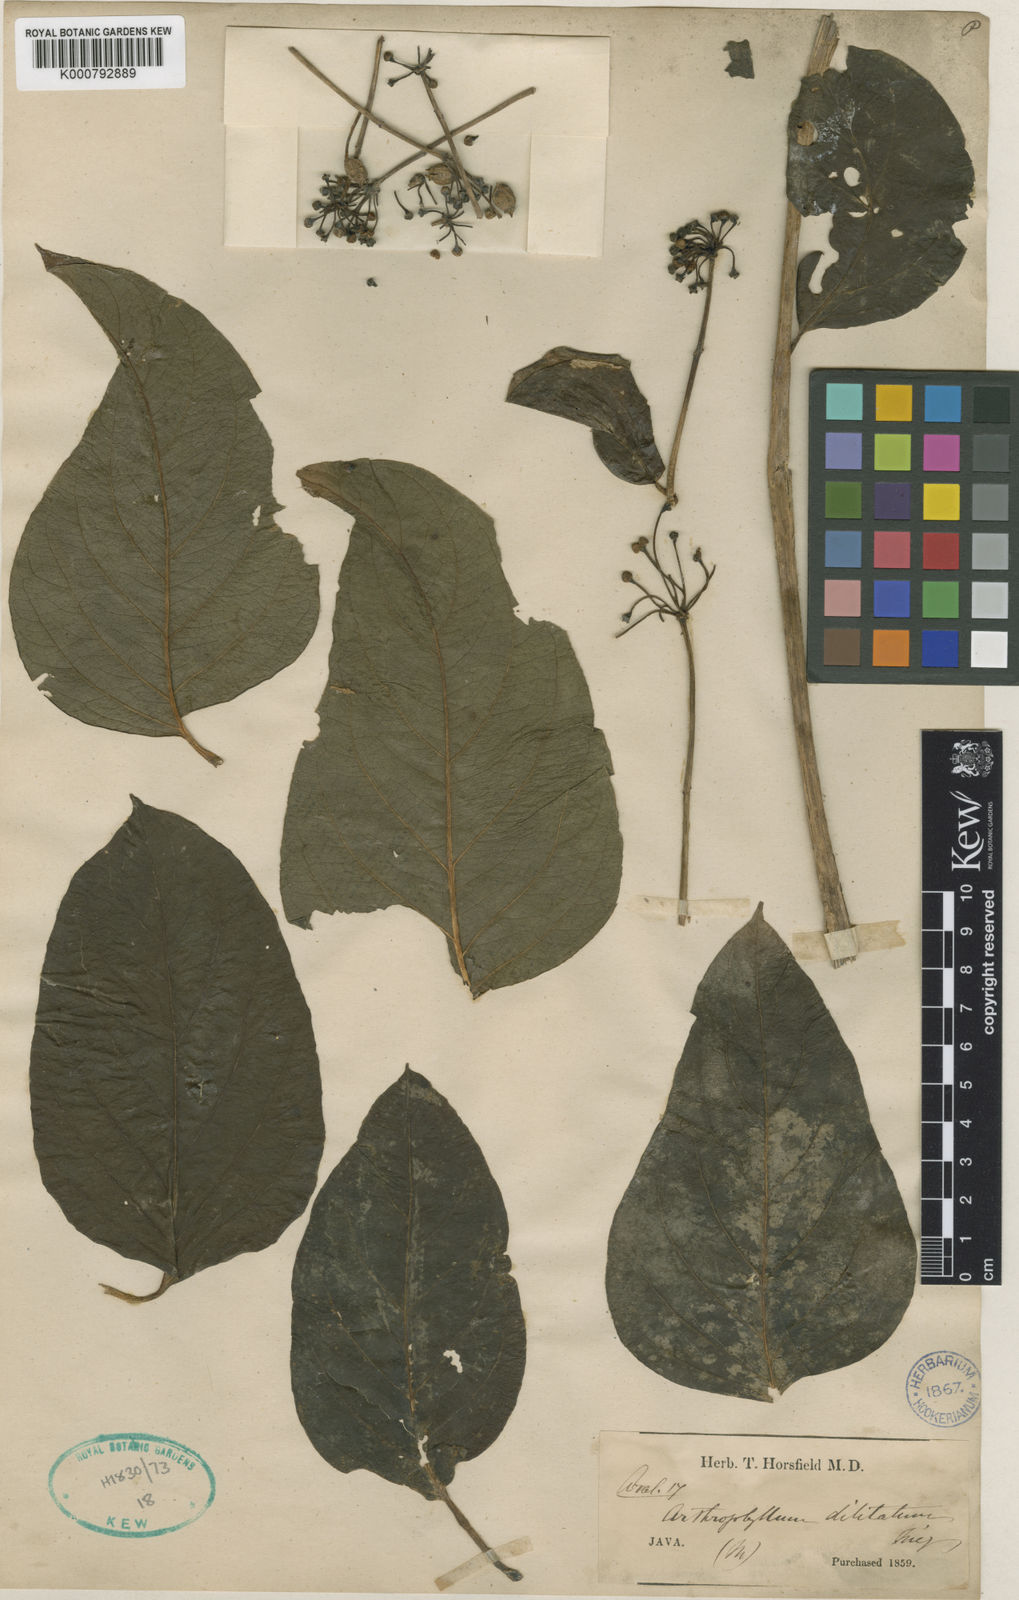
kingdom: Plantae
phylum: Tracheophyta
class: Magnoliopsida
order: Apiales
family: Araliaceae
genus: Polyscias
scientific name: Polyscias diversifolia
